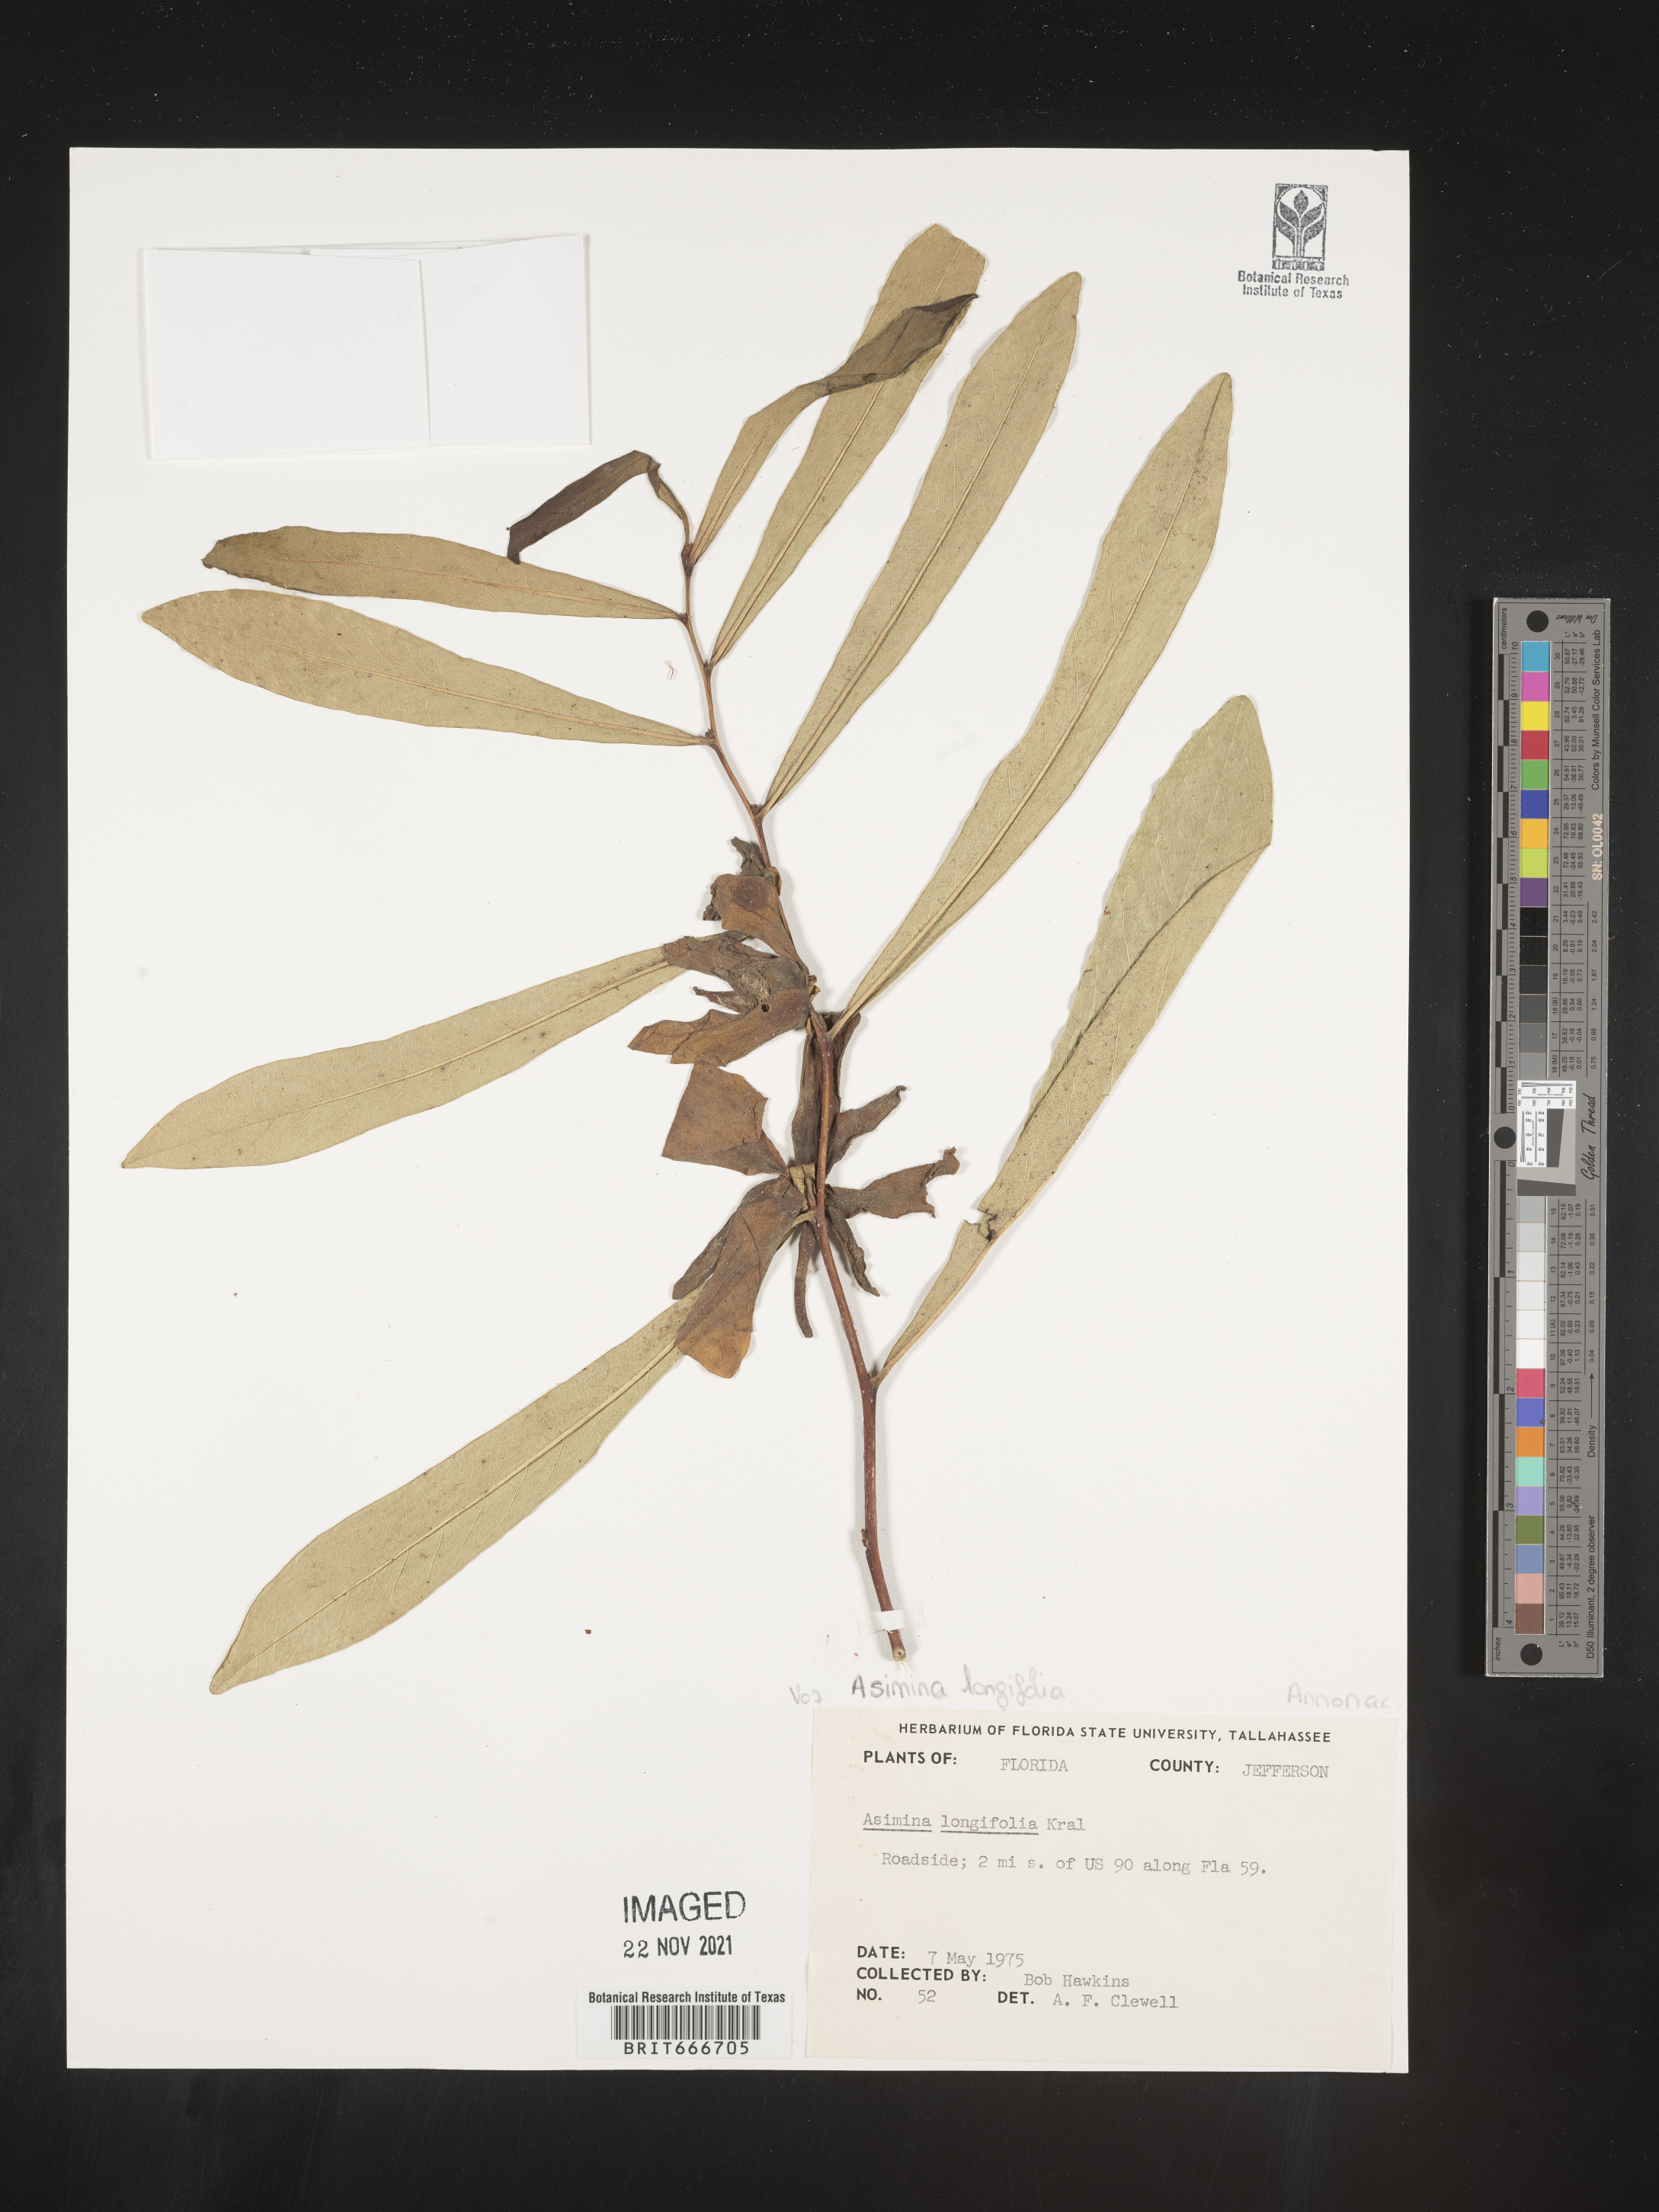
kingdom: Plantae
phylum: Tracheophyta
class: Magnoliopsida
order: Magnoliales
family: Annonaceae
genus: Asimina
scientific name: Asimina
